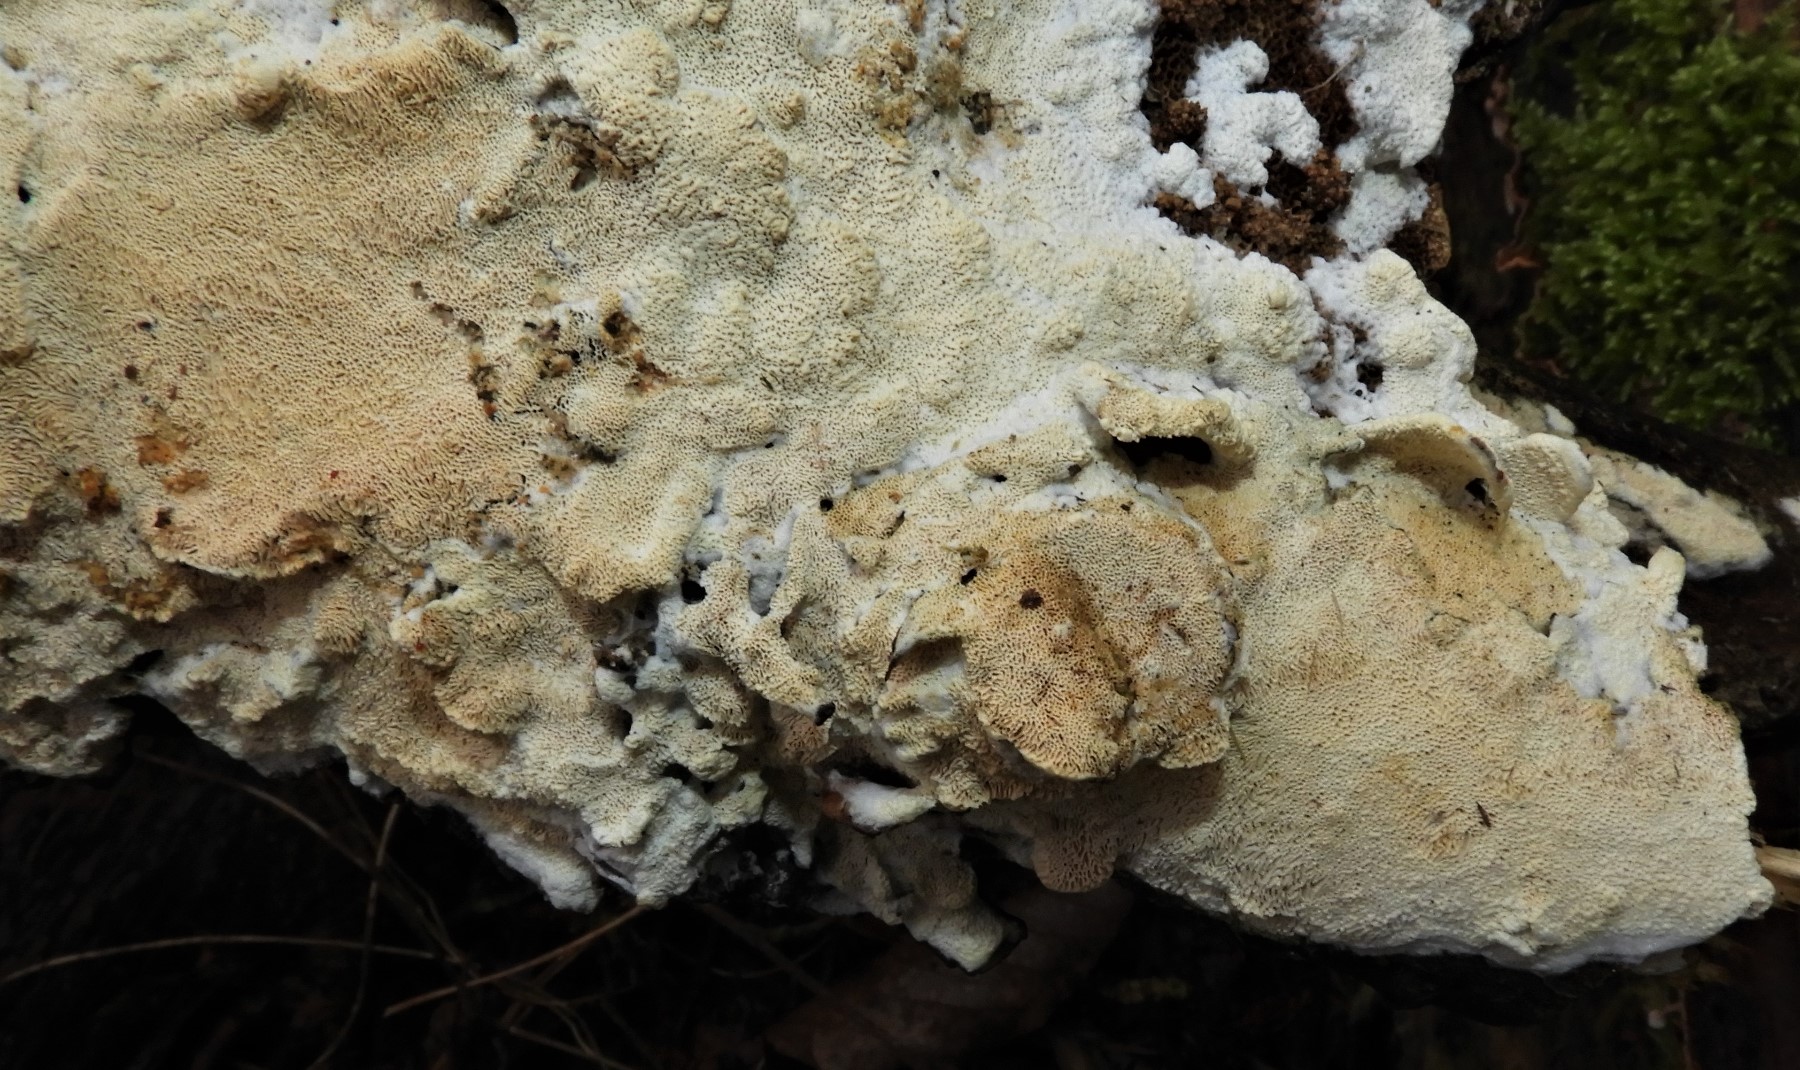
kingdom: Fungi
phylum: Basidiomycota
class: Agaricomycetes
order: Hymenochaetales
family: Schizoporaceae
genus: Xylodon
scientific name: Xylodon
